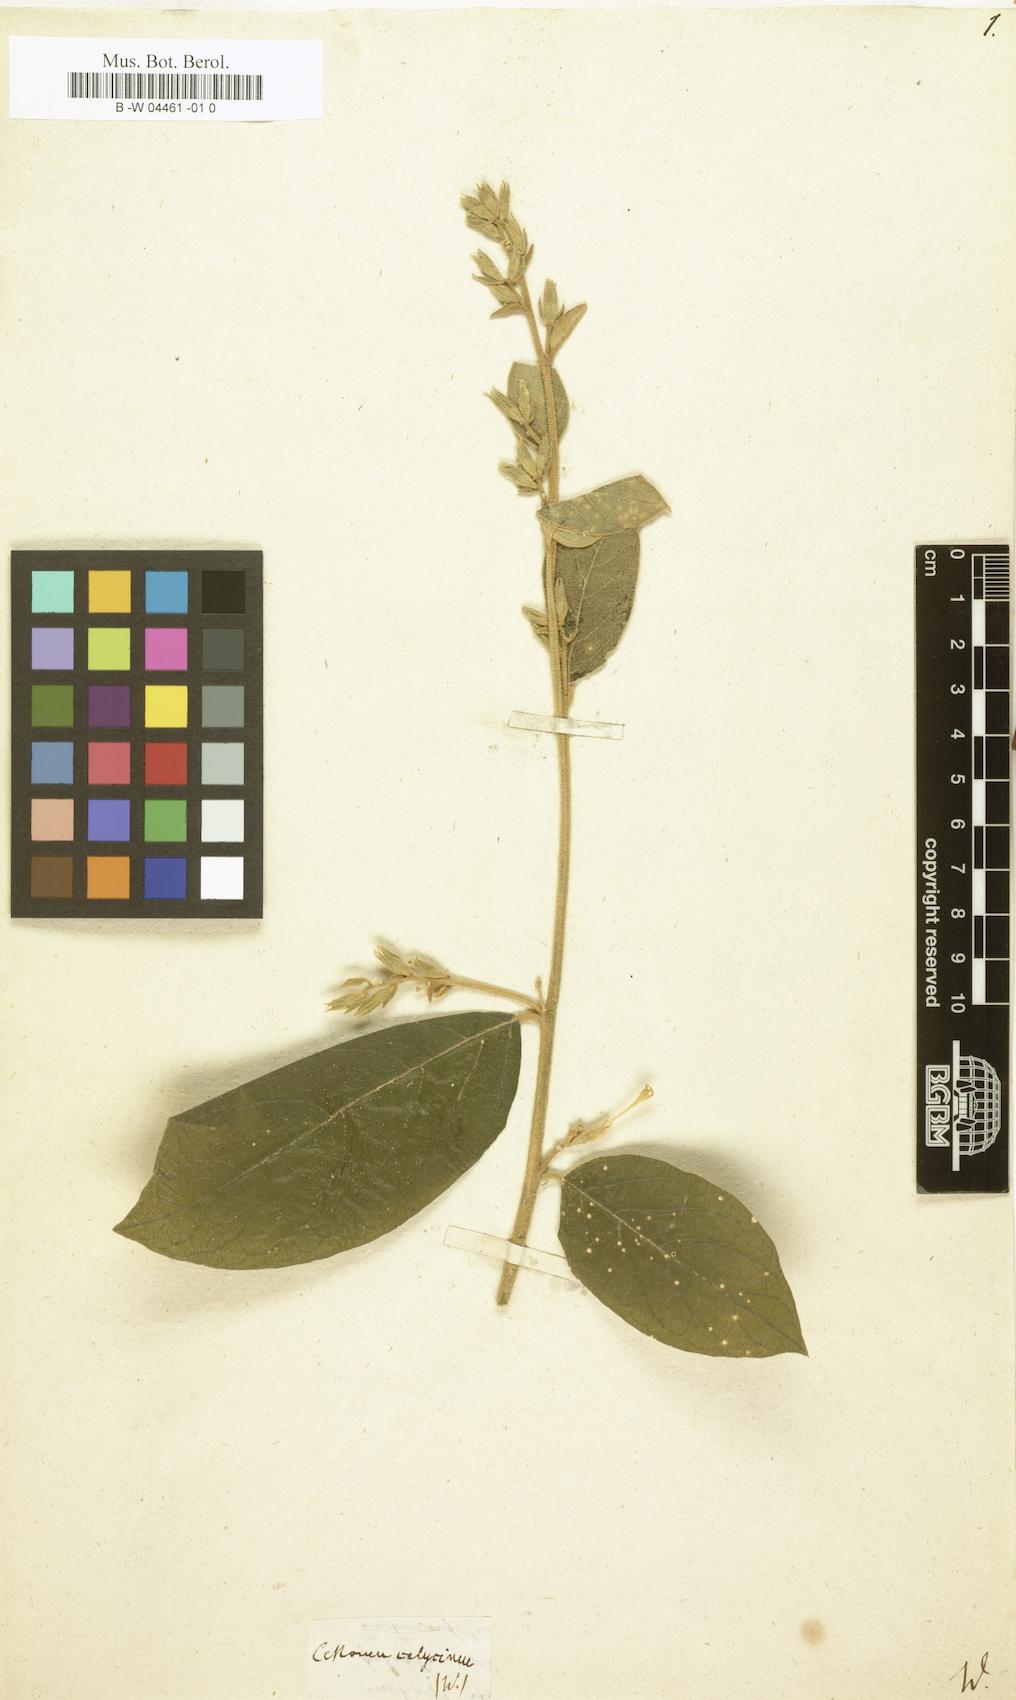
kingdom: Plantae
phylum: Tracheophyta
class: Magnoliopsida
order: Solanales
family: Solanaceae
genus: Cestrum
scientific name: Cestrum strigillatum
